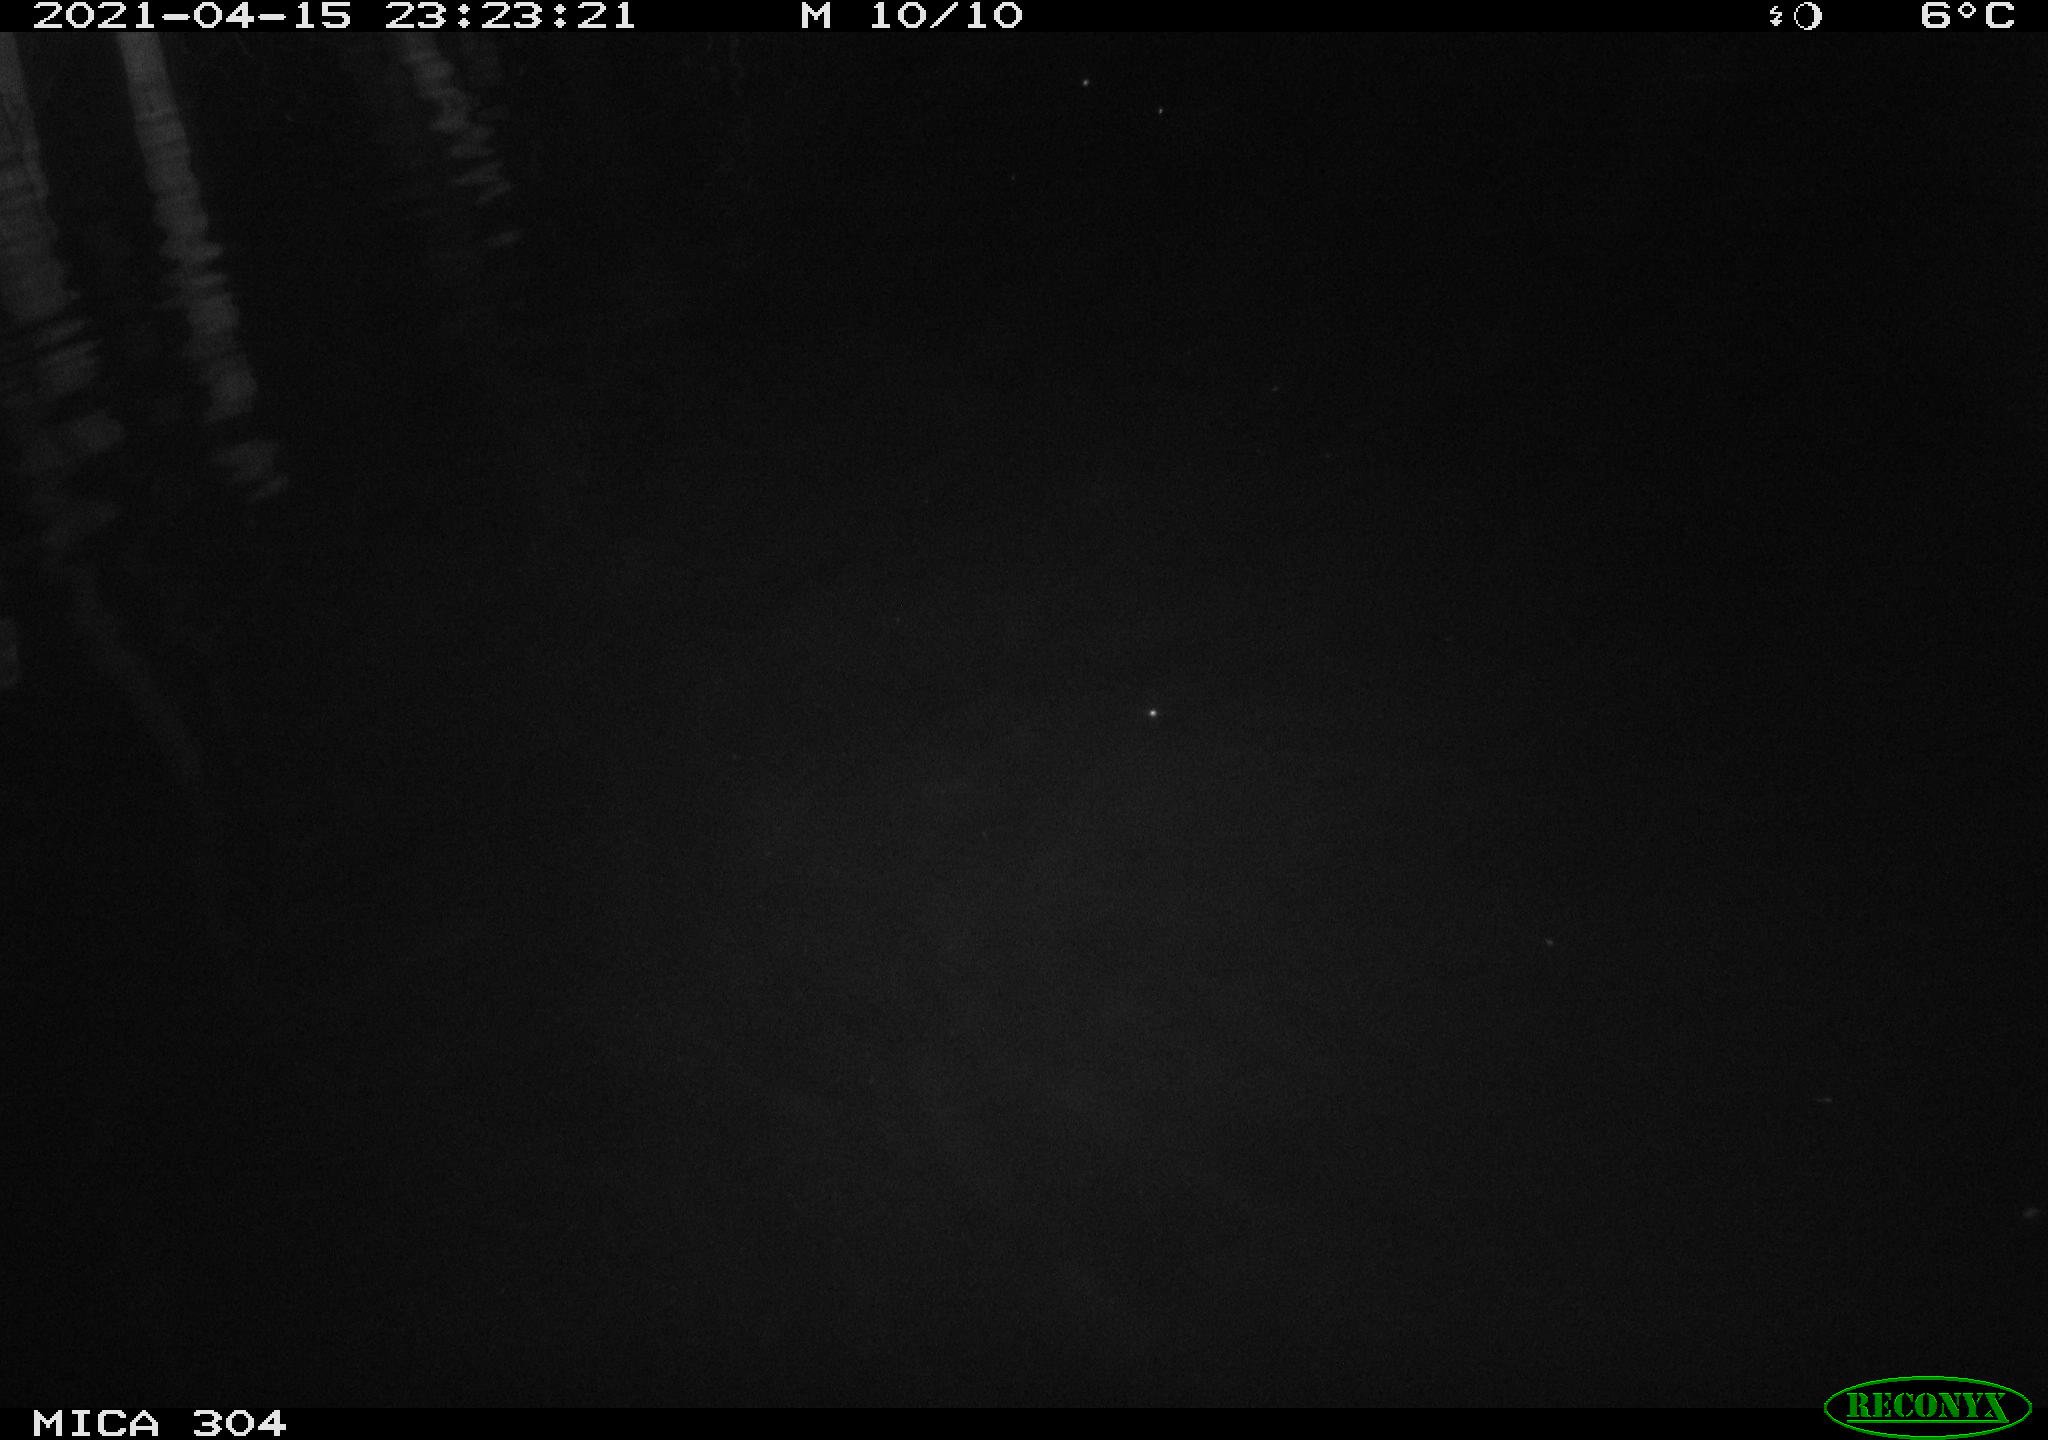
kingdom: Animalia
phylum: Chordata
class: Aves
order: Anseriformes
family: Anatidae
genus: Anas
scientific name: Anas
